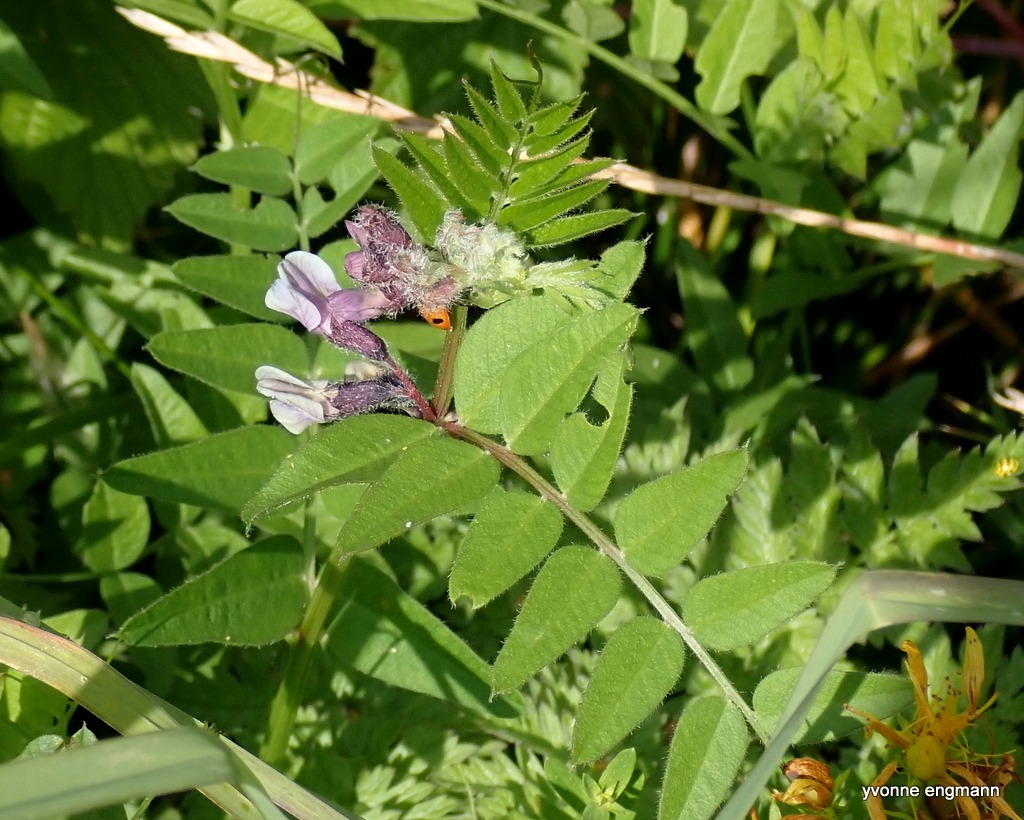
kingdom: Plantae
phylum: Tracheophyta
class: Magnoliopsida
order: Fabales
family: Fabaceae
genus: Vicia
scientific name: Vicia sepium
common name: Gærde-vikke
